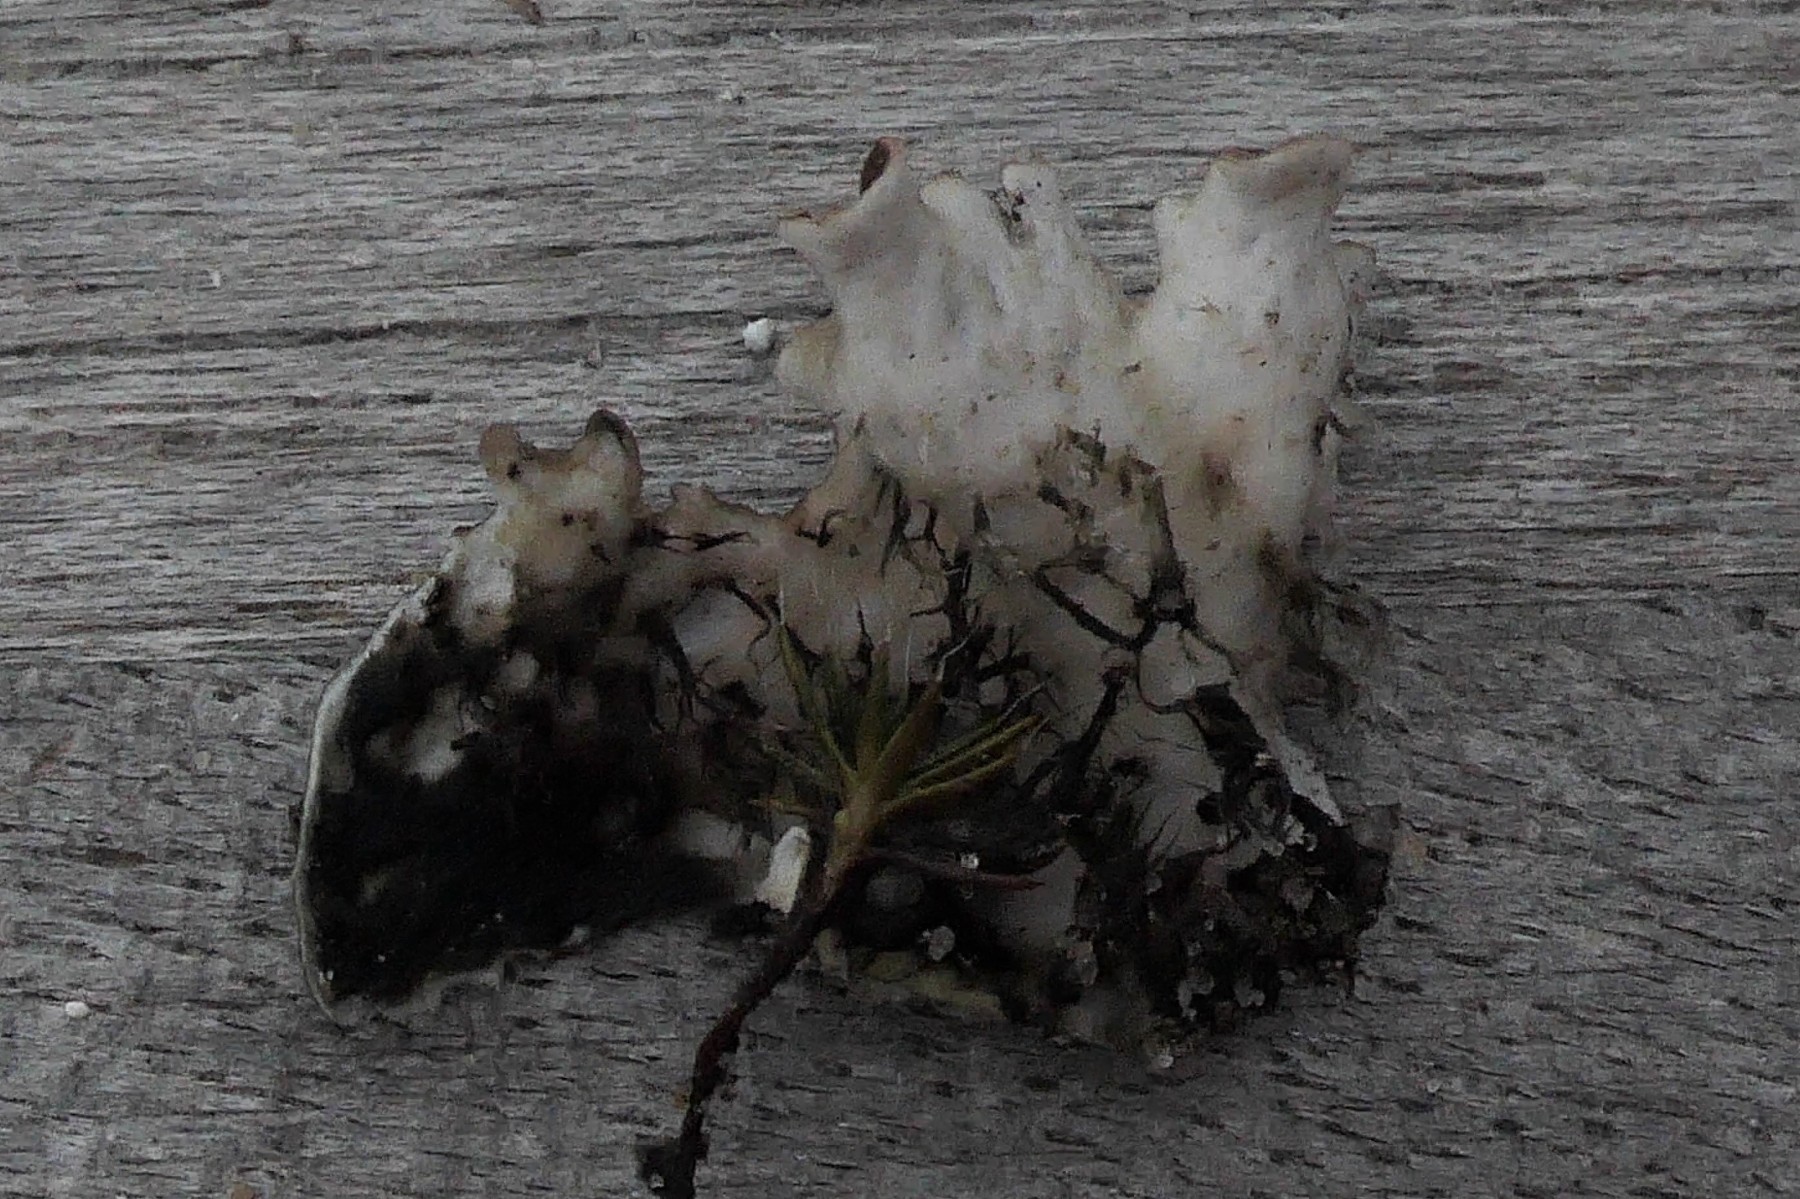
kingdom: Fungi
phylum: Ascomycota
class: Lecanoromycetes
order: Peltigerales
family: Peltigeraceae
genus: Peltigera
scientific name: Peltigera hymenina
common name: hinde-skjoldlav
